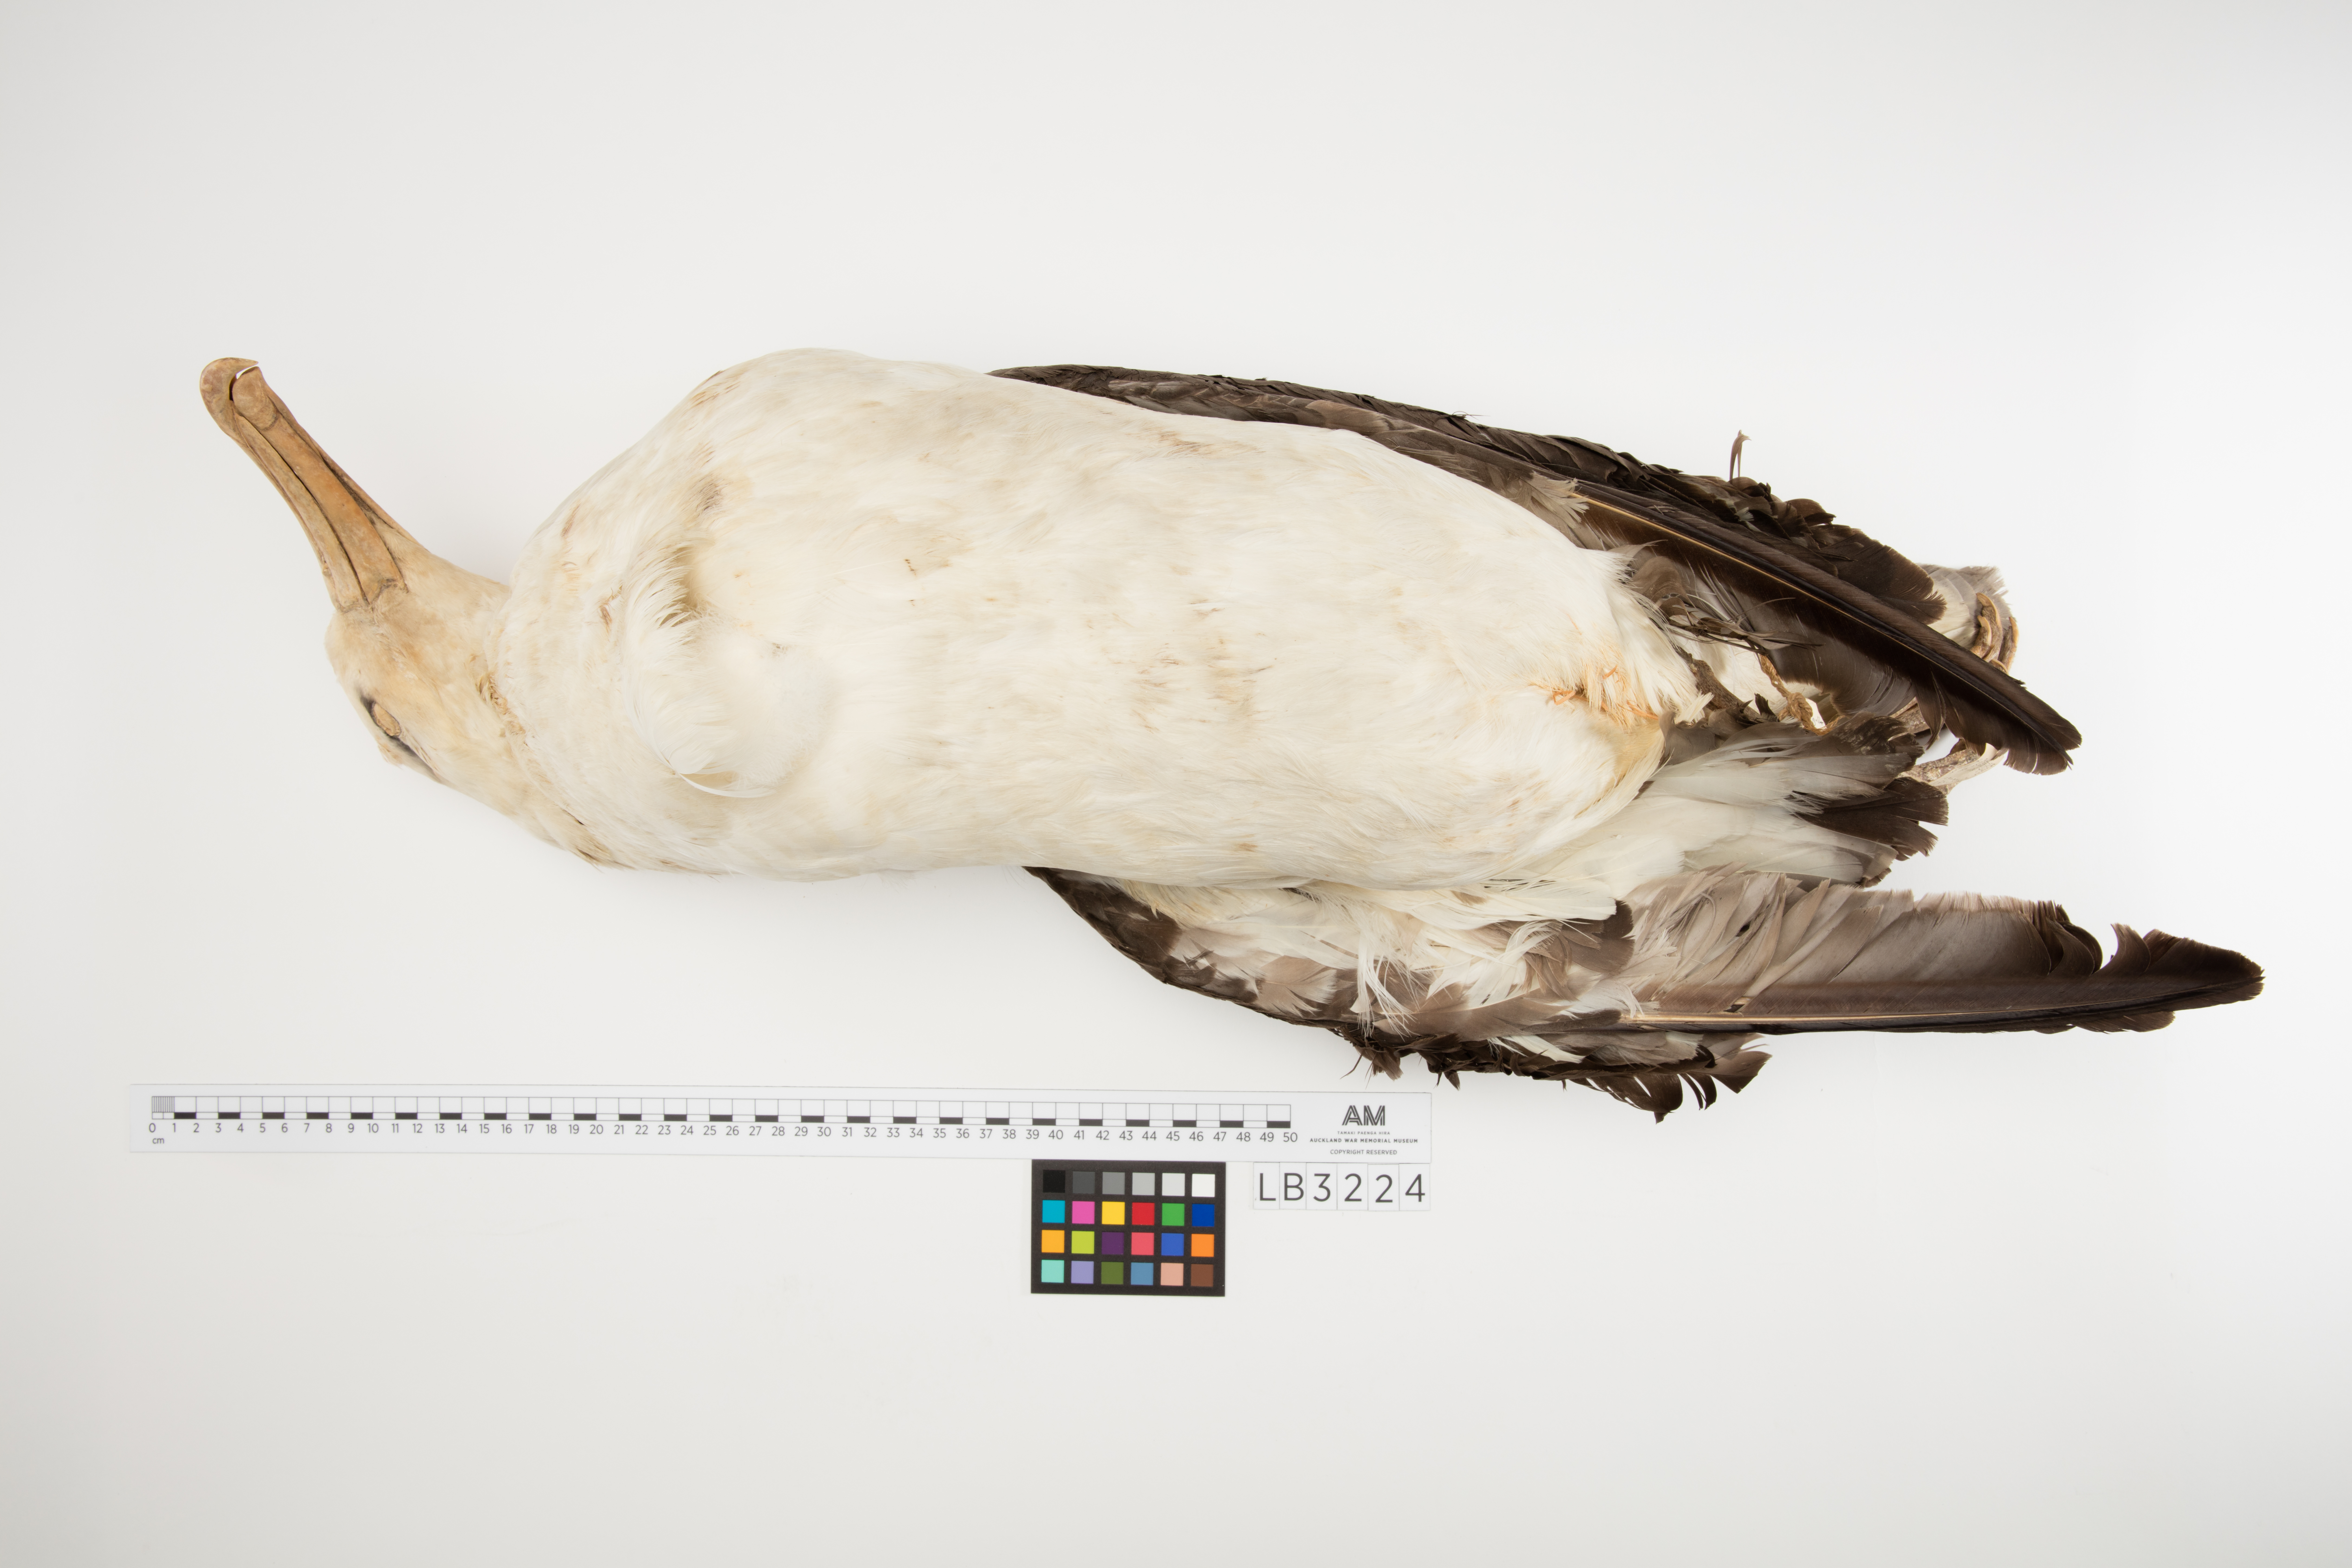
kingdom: Animalia
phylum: Chordata
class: Aves
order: Procellariiformes
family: Diomedeidae
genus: Thalassarche
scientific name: Thalassarche melanophris
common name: Black-browed albatross
